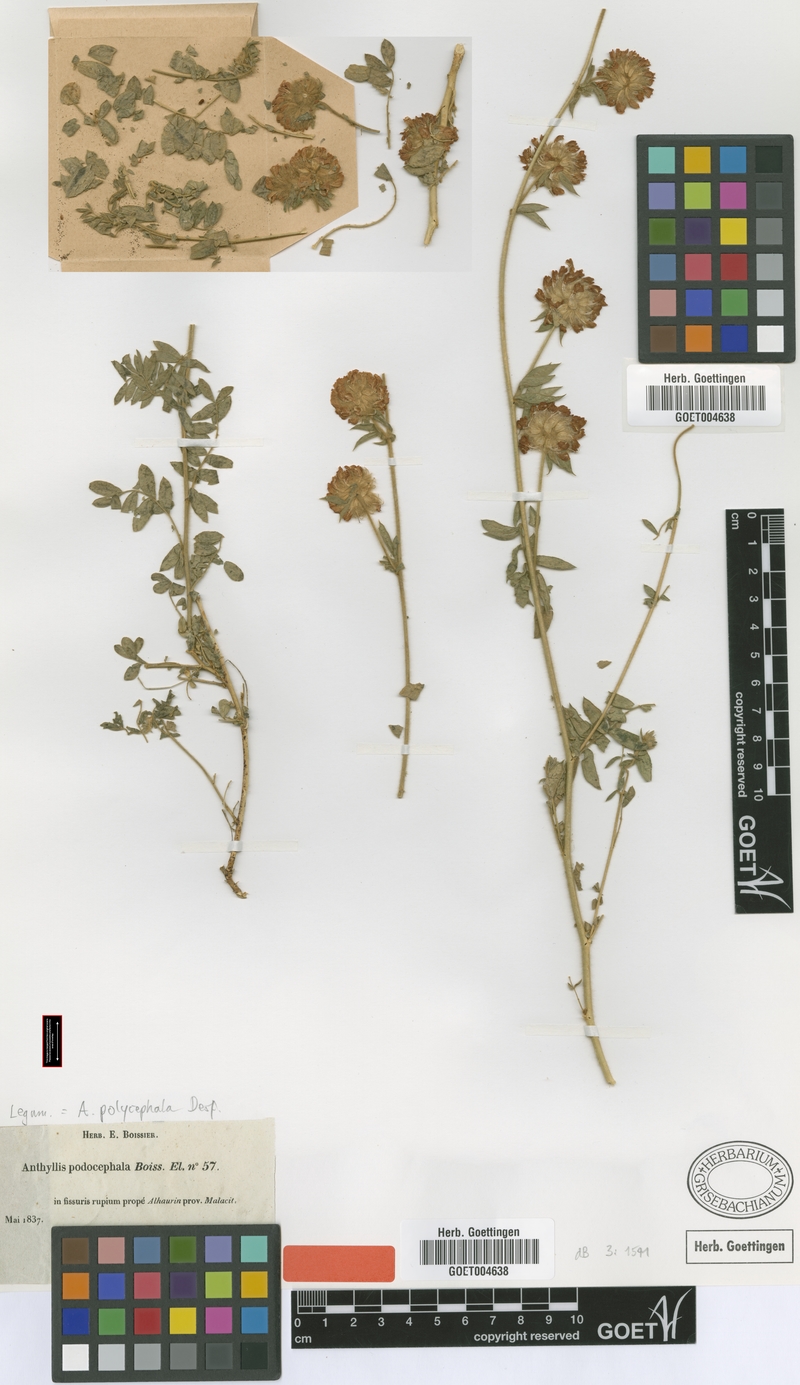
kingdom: Plantae
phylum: Tracheophyta
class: Magnoliopsida
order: Fabales
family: Fabaceae
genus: Anthyllis
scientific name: Anthyllis polycephala
